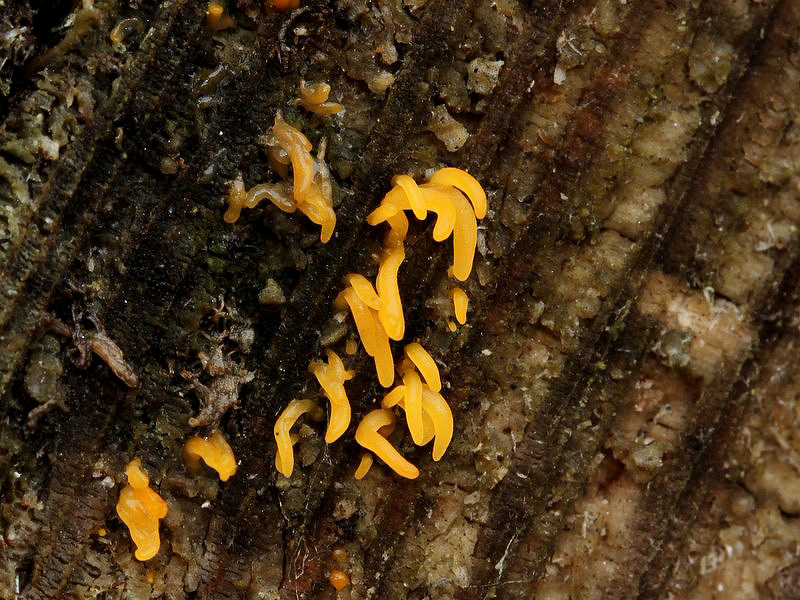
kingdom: Fungi
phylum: Basidiomycota
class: Dacrymycetes
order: Dacrymycetales
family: Dacrymycetaceae
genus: Calocera
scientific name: Calocera cornea
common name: liden guldgaffel
